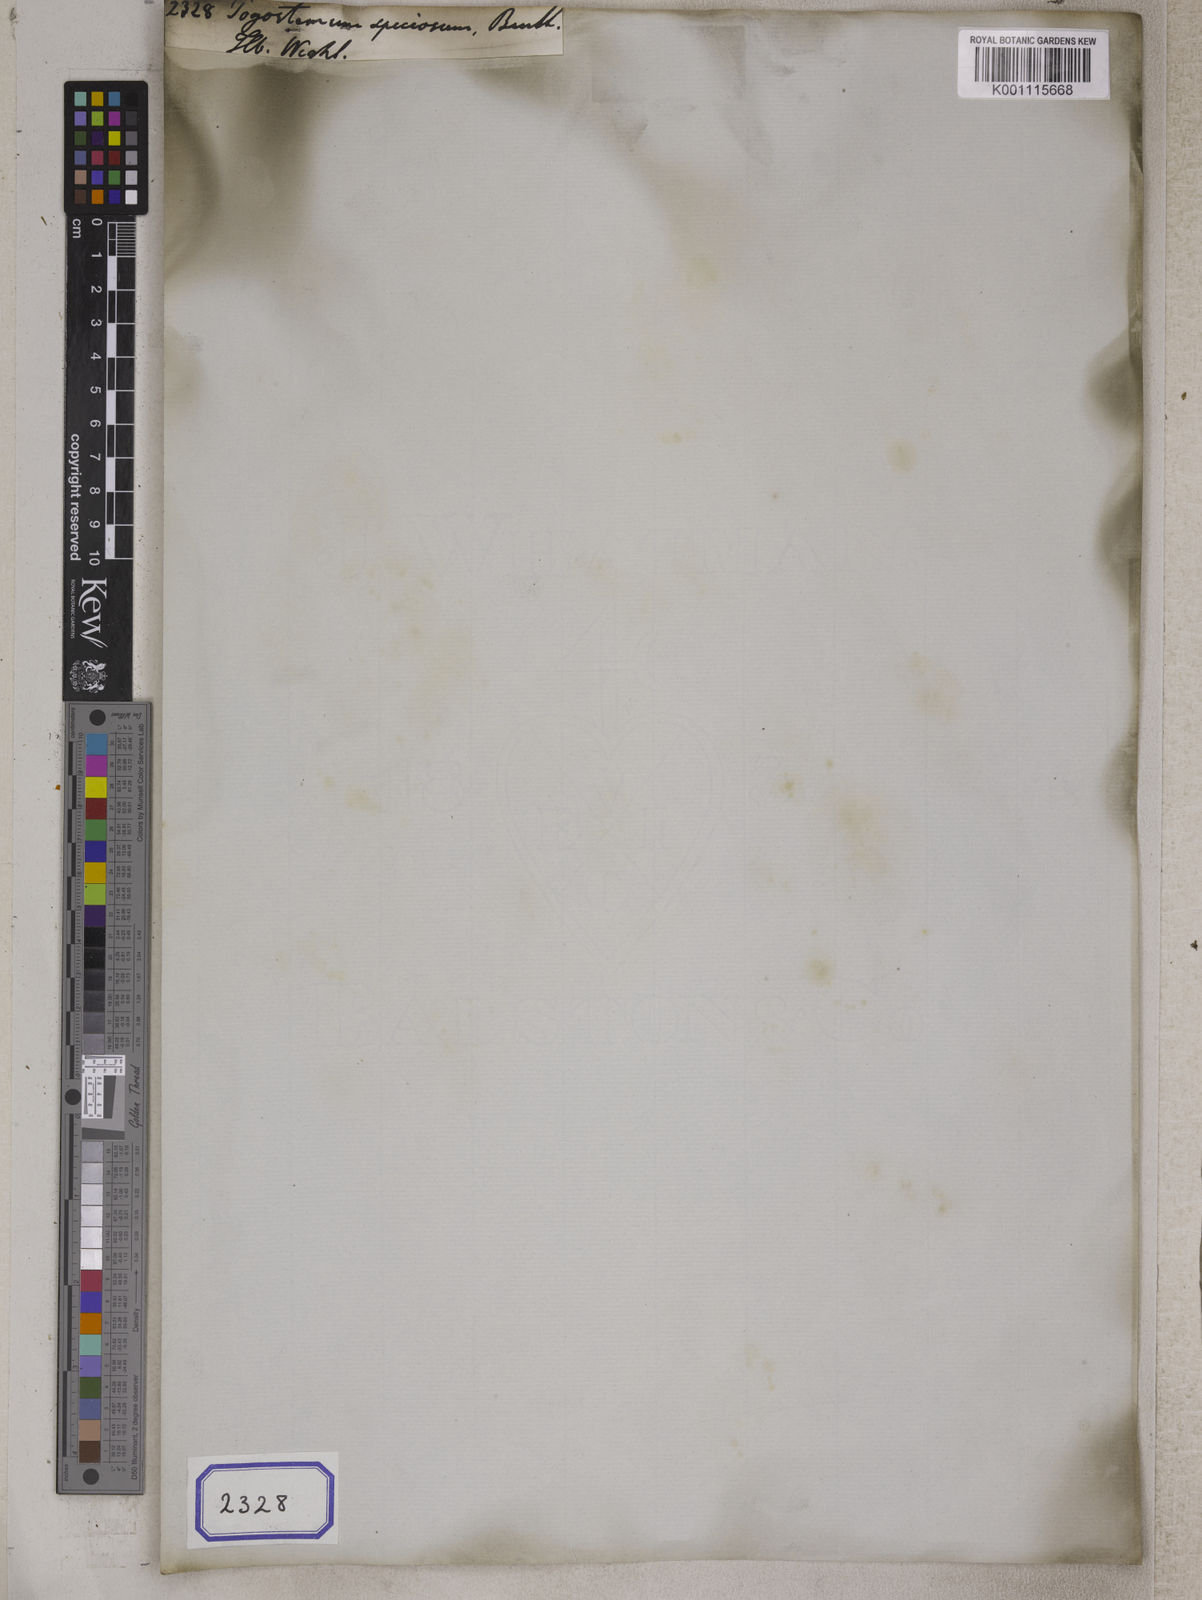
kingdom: Plantae
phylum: Tracheophyta
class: Magnoliopsida
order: Lamiales
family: Lamiaceae
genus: Pogostemon
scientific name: Pogostemon
